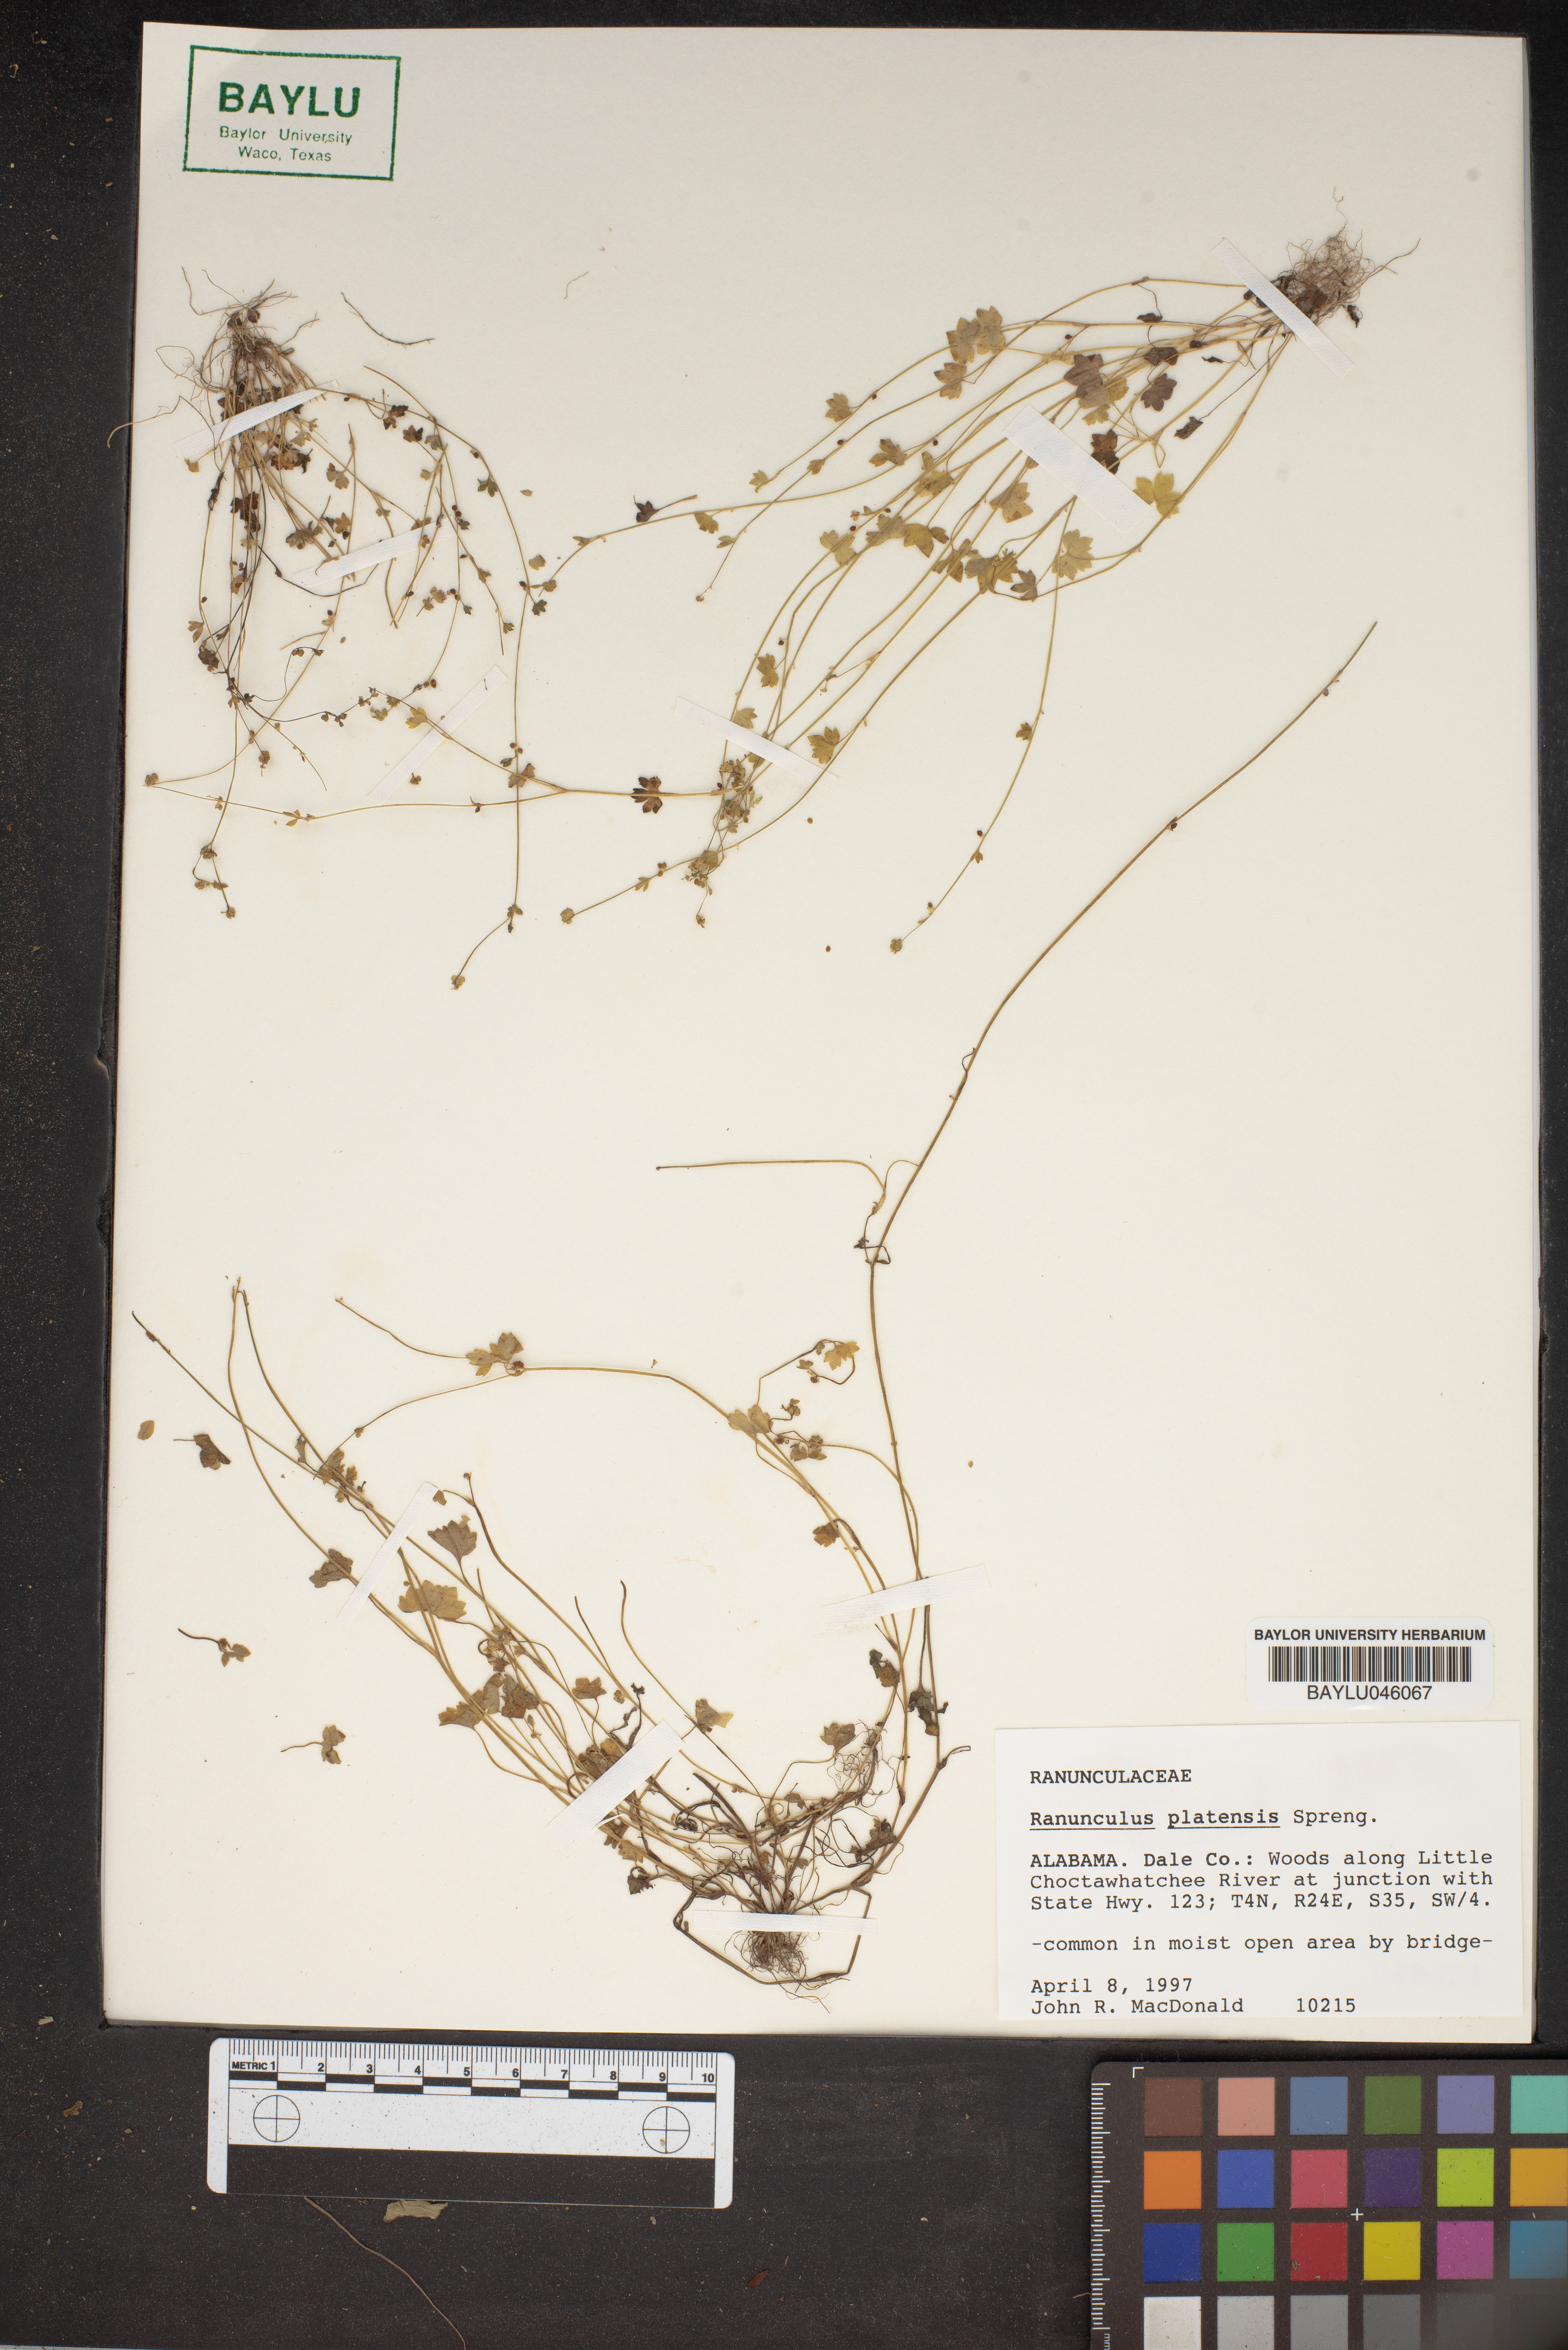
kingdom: Plantae
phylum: Tracheophyta
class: Magnoliopsida
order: Ranunculales
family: Ranunculaceae
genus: Ranunculus
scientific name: Ranunculus platensis
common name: Prairie buttercup
